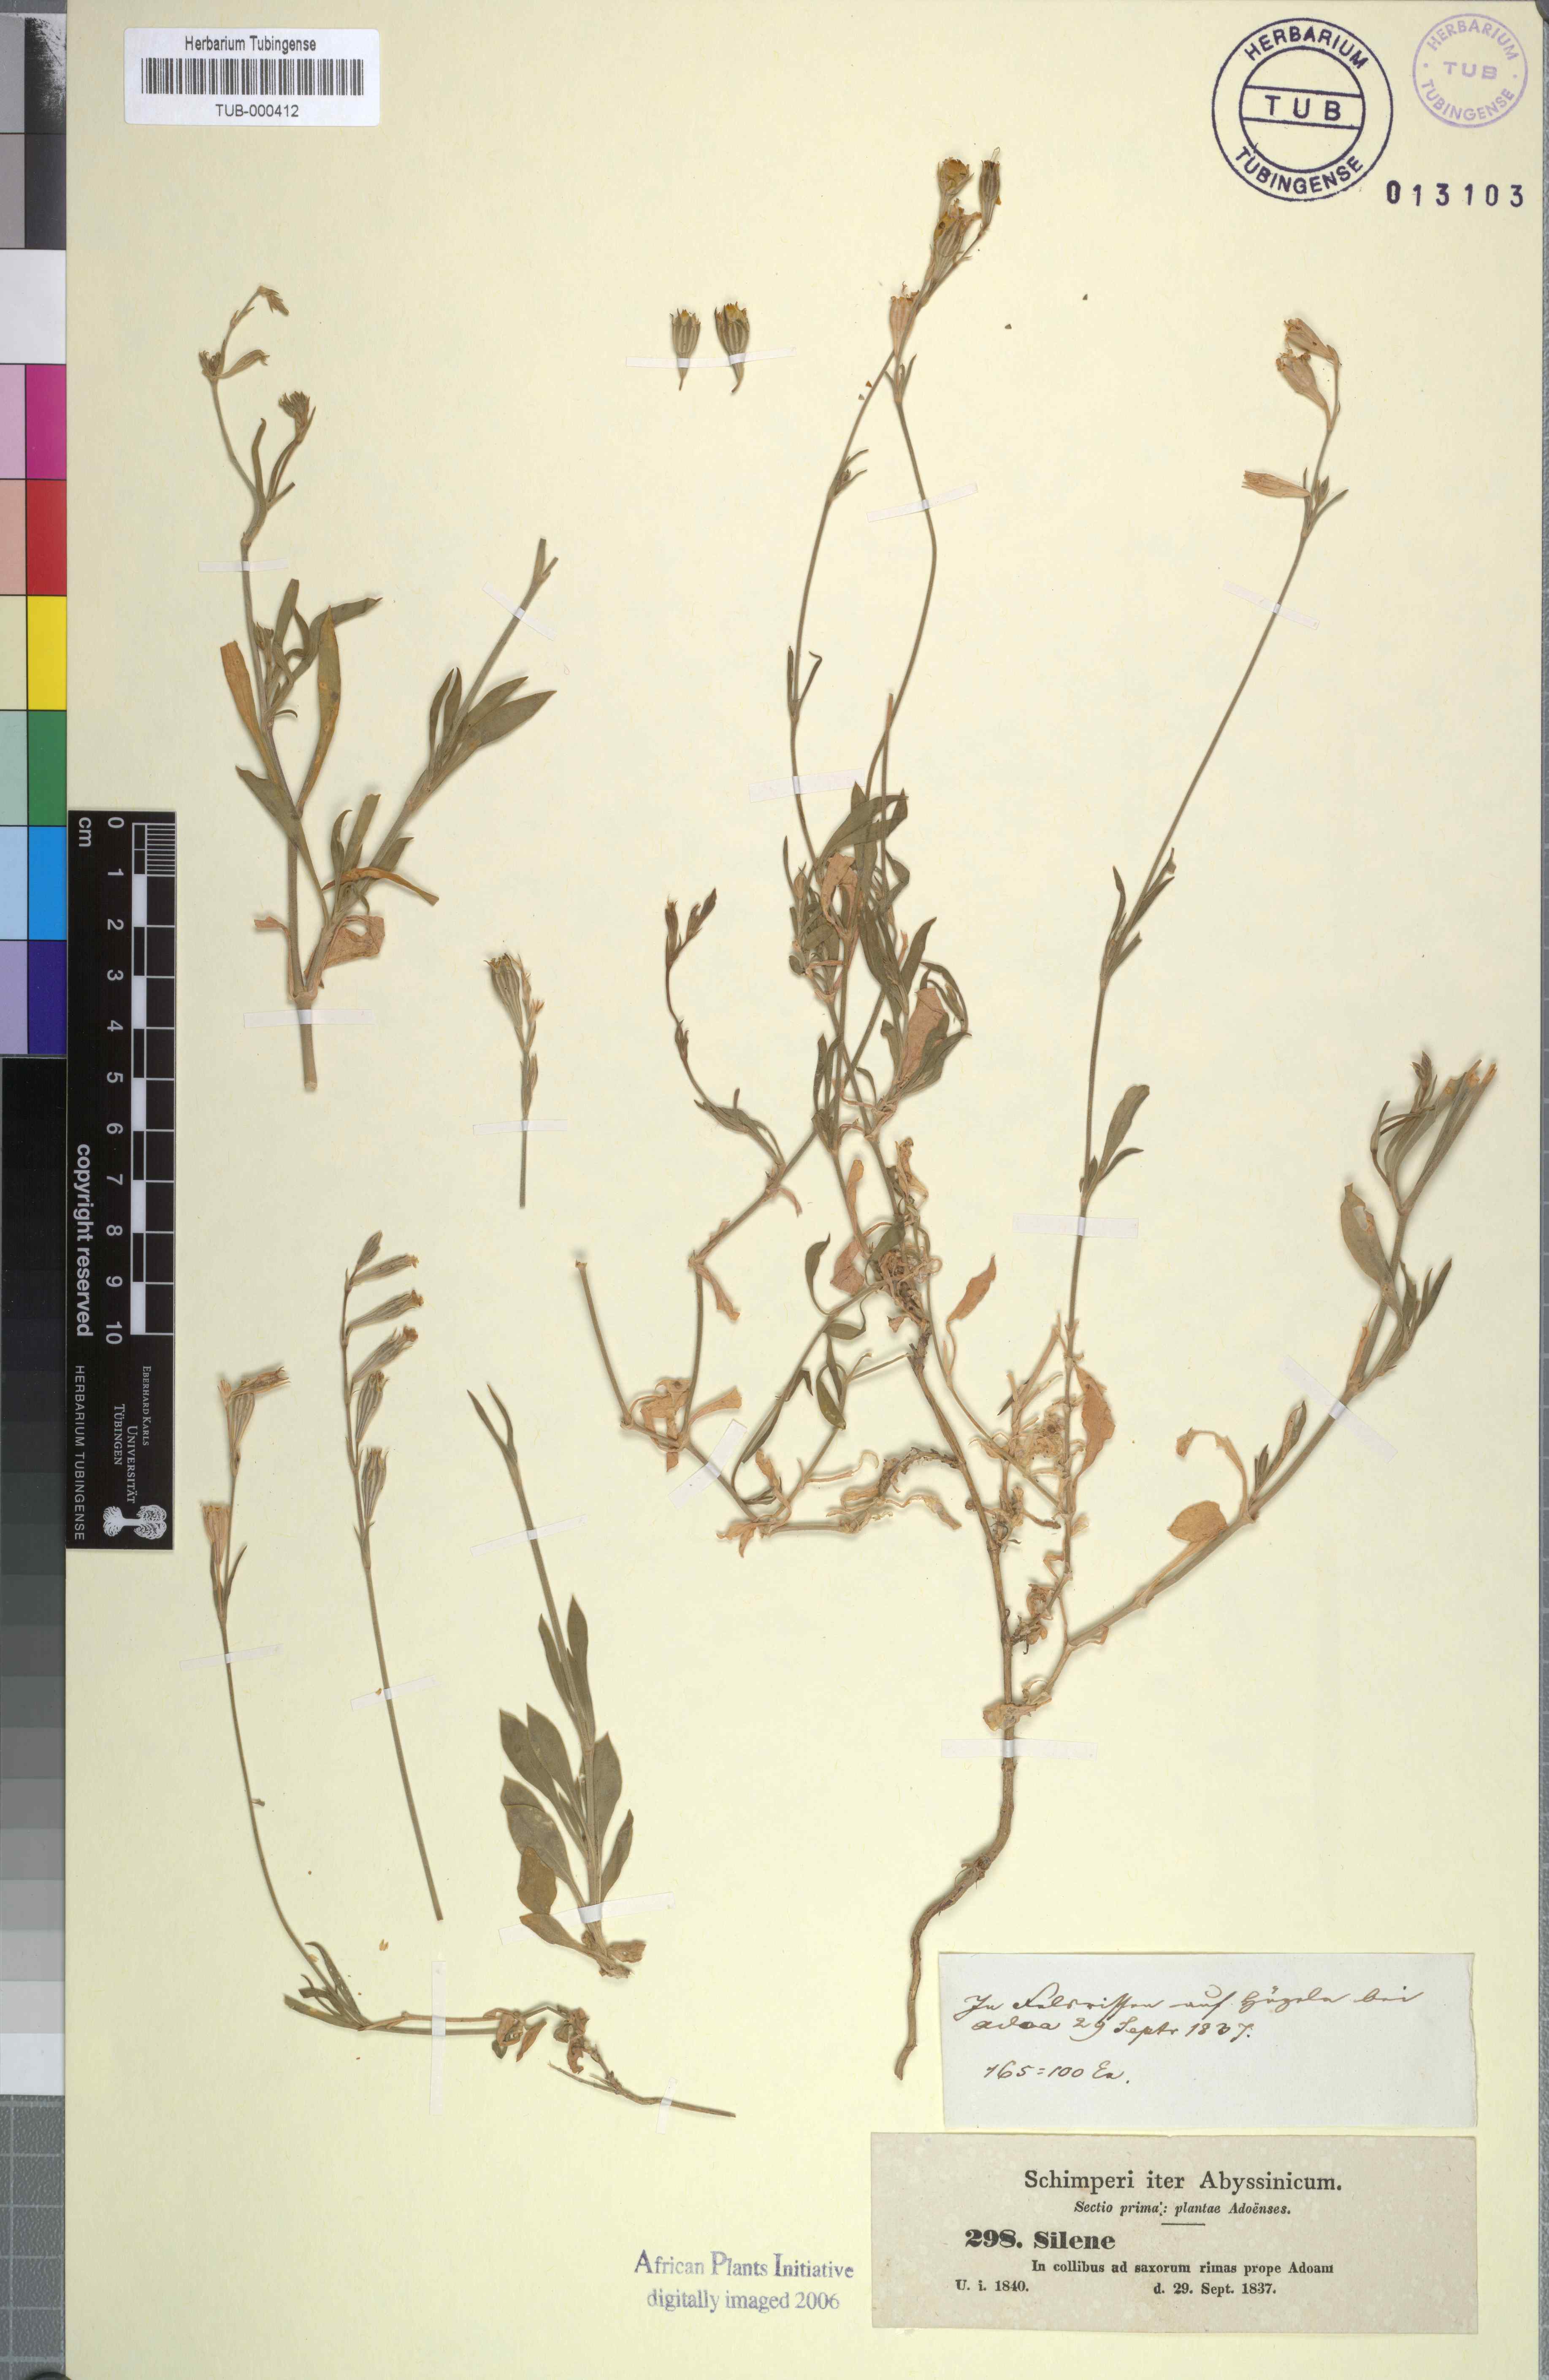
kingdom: Plantae
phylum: Tracheophyta
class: Magnoliopsida
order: Caryophyllales
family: Caryophyllaceae
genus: Silene
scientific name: Silene chirensis
